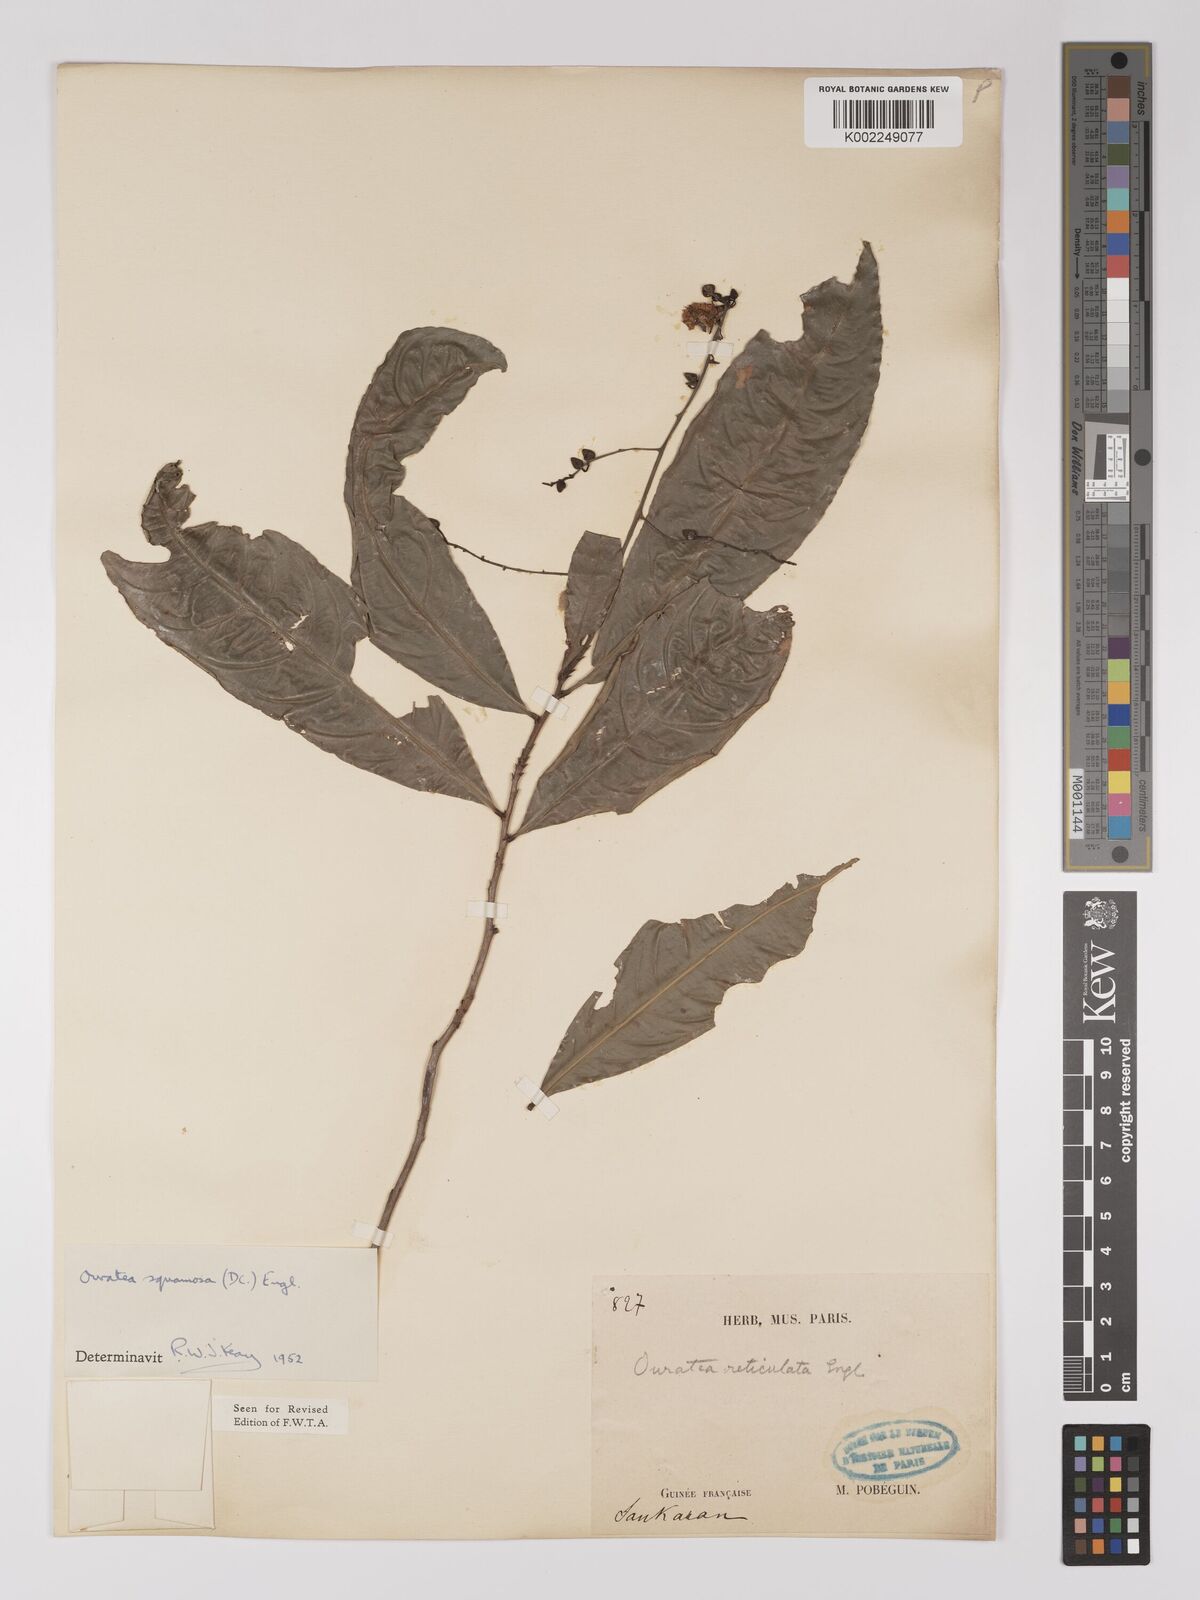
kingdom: Plantae
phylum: Tracheophyta
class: Magnoliopsida
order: Malpighiales
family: Ochnaceae
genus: Campylospermum
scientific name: Campylospermum squamosum
